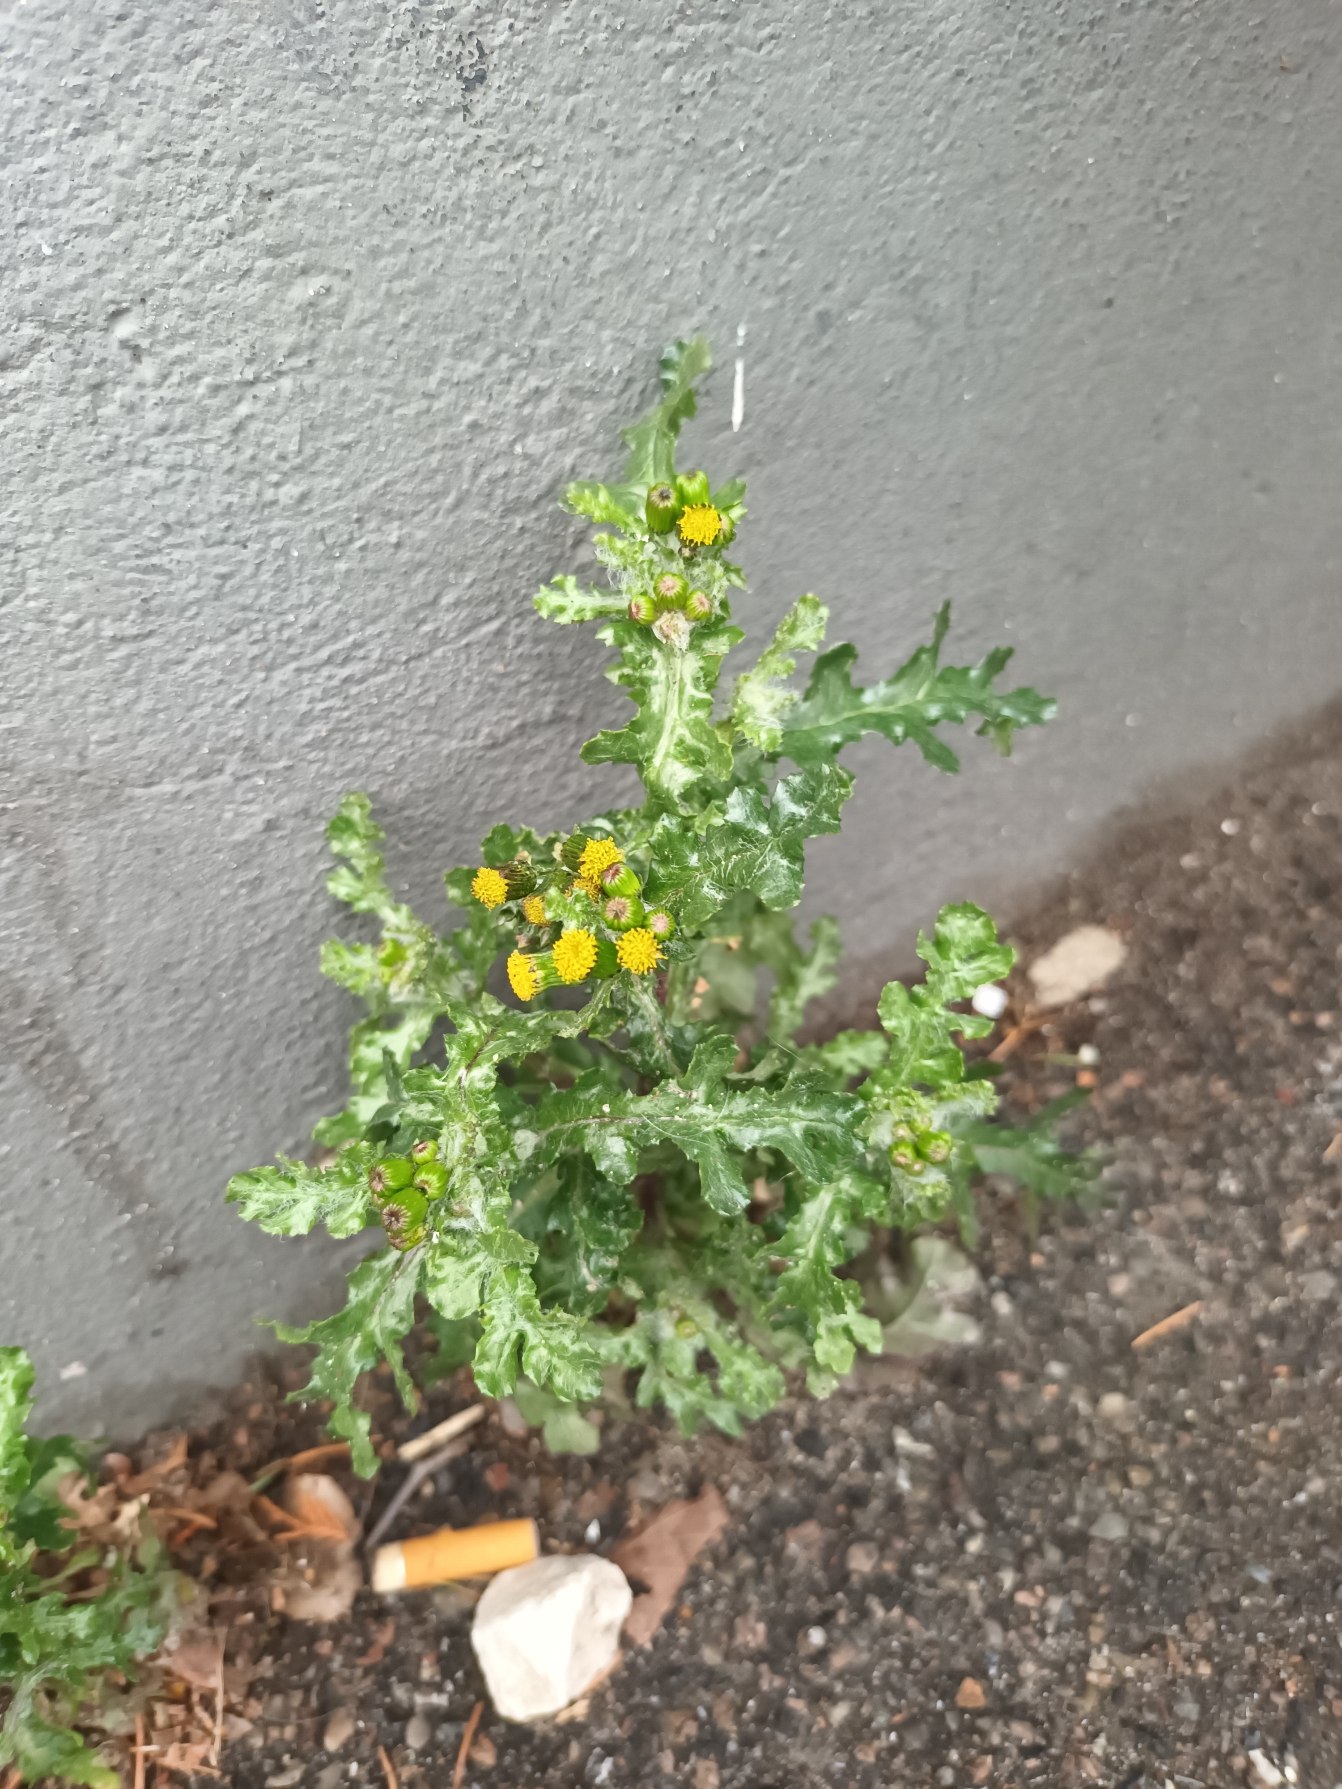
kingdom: Plantae
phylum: Tracheophyta
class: Magnoliopsida
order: Asterales
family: Asteraceae
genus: Senecio
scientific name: Senecio vulgaris
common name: Almindelig brandbæger
